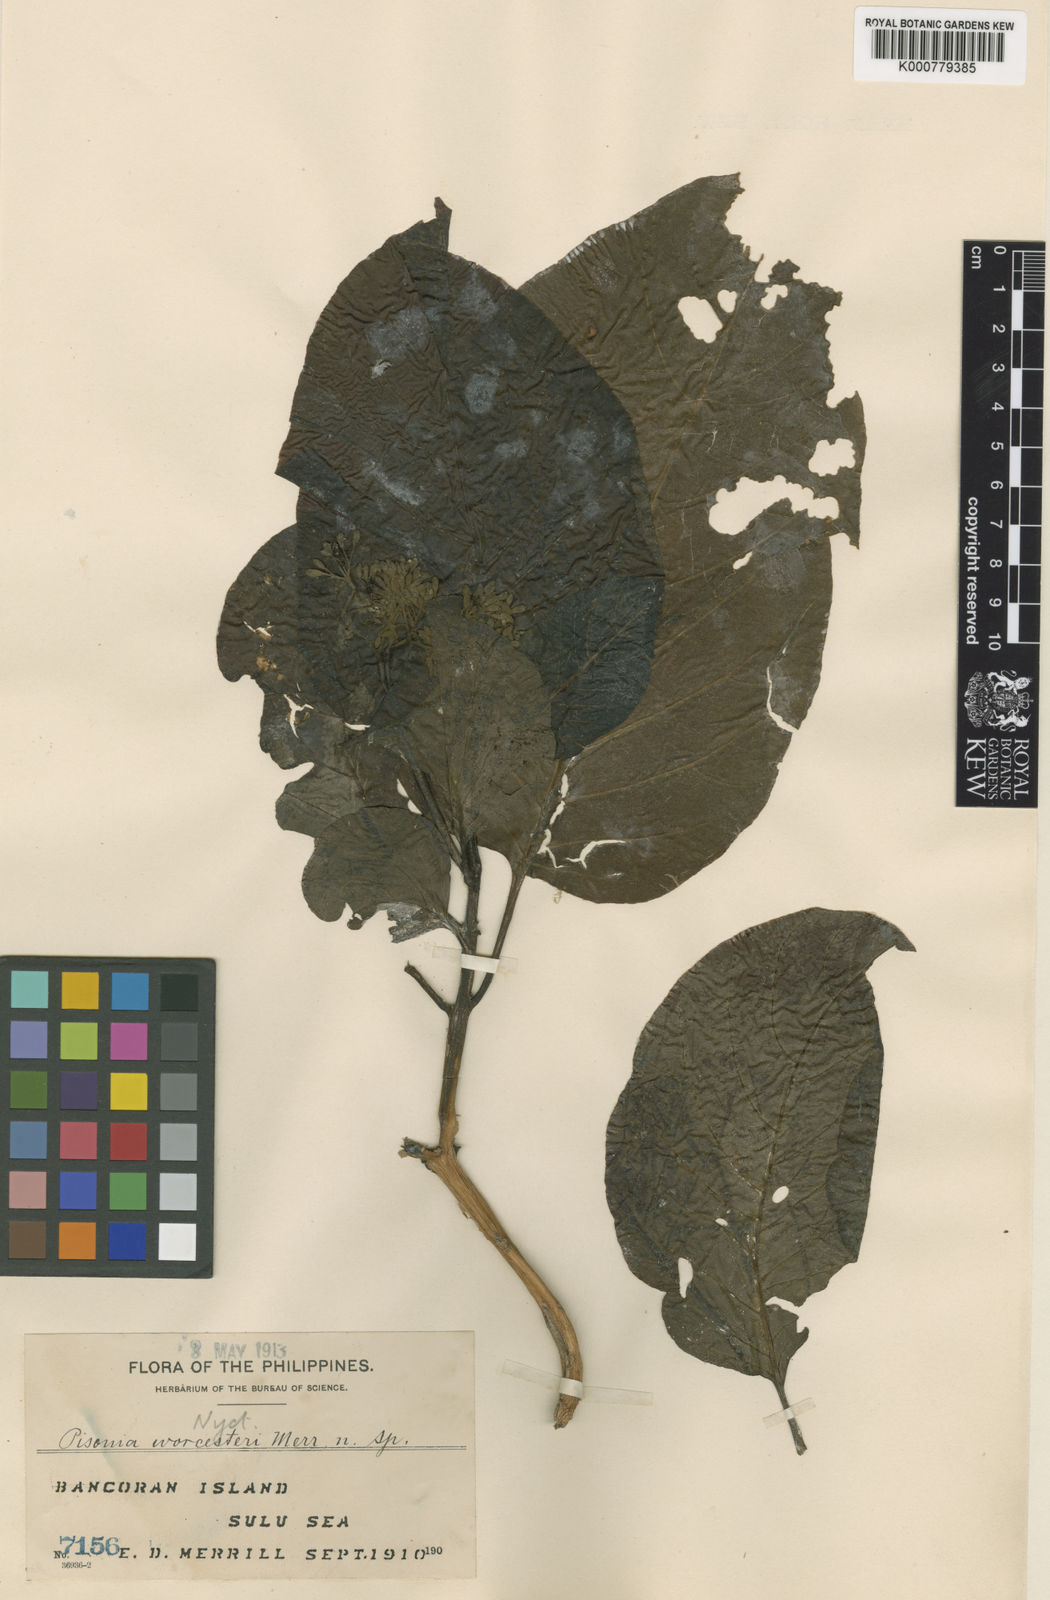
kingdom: Plantae
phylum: Tracheophyta
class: Magnoliopsida
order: Caryophyllales
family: Nyctaginaceae
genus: Pisonia
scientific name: Pisonia
